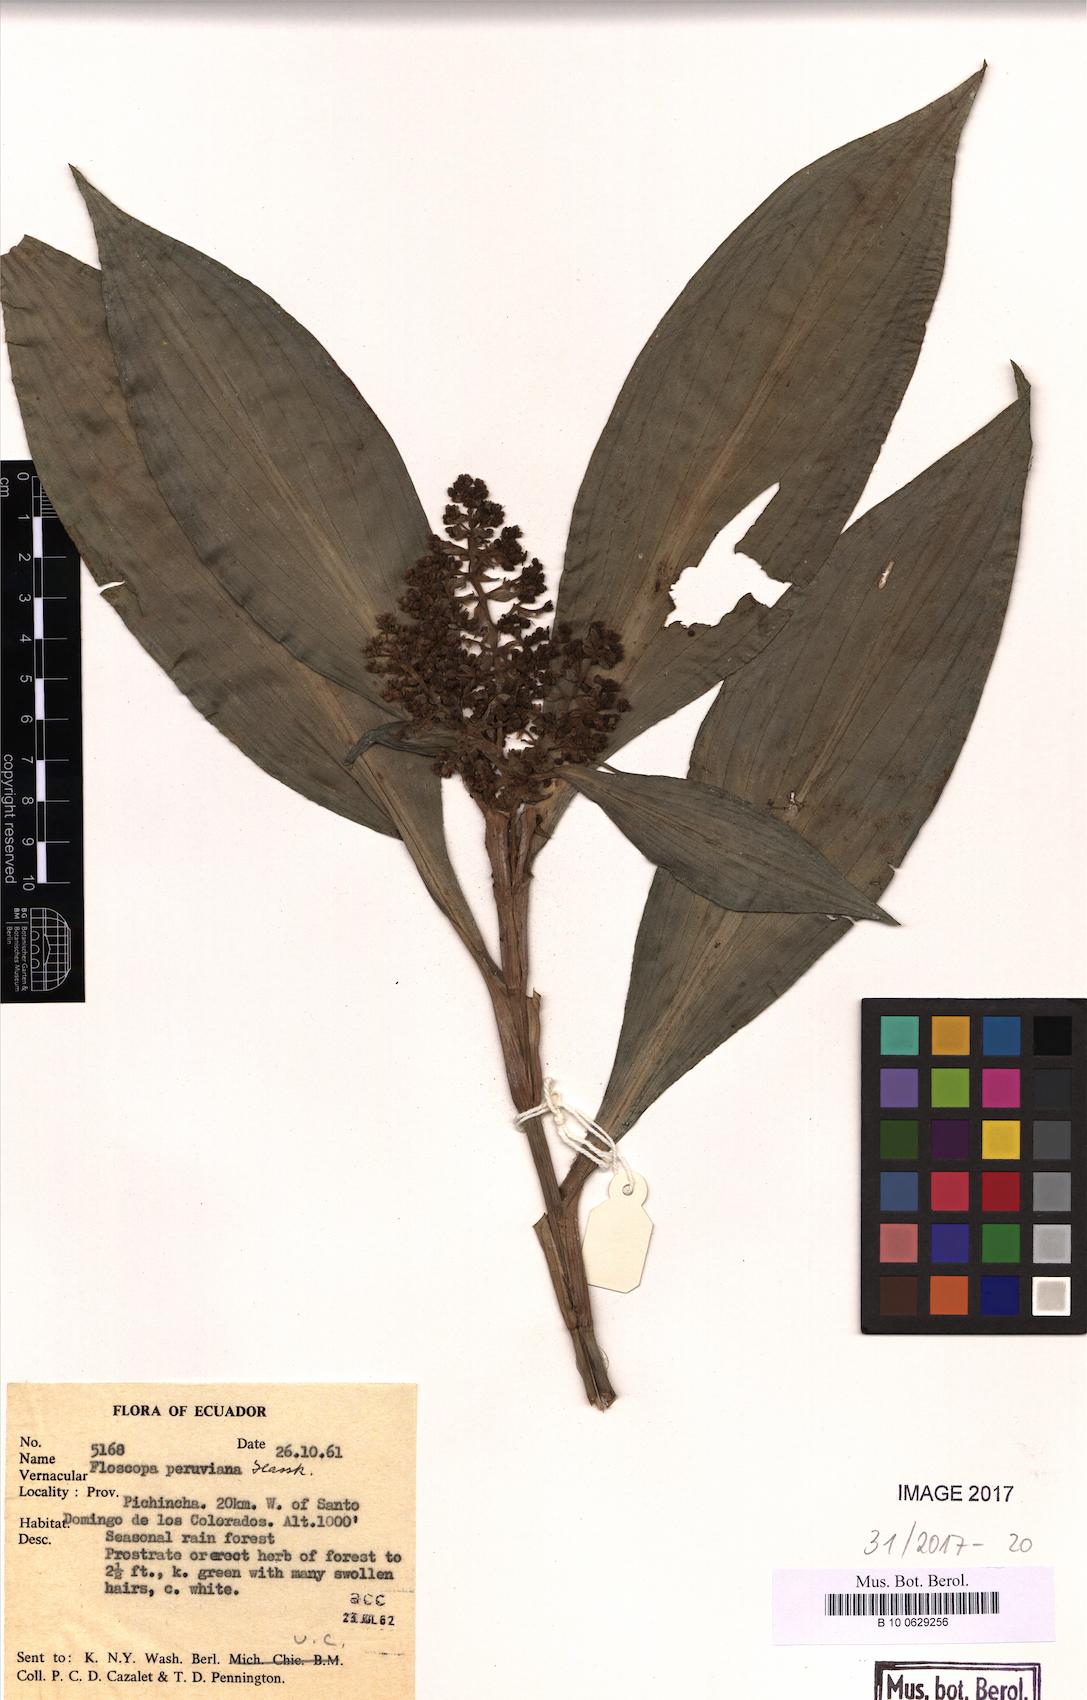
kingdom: Plantae
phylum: Tracheophyta
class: Liliopsida
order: Commelinales
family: Commelinaceae
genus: Floscopa
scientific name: Floscopa peruviana
